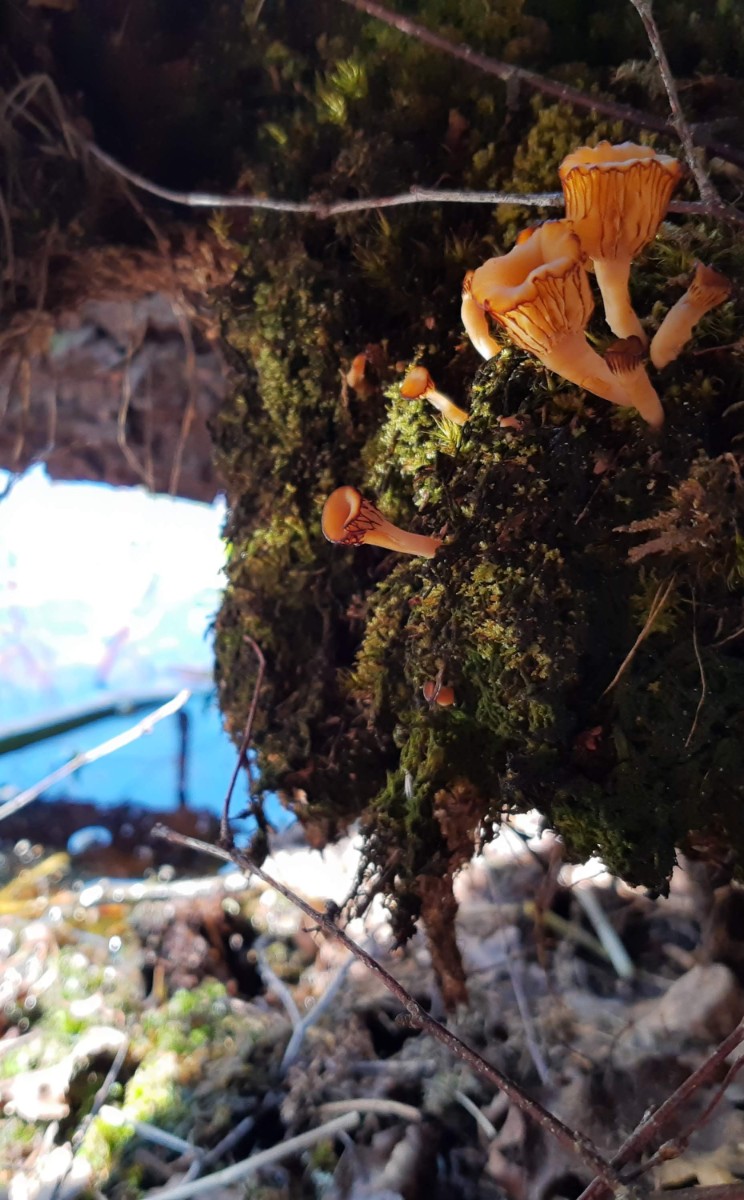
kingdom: Fungi
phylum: Basidiomycota
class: Agaricomycetes
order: Agaricales
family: Hygrophoraceae
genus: Lichenomphalia
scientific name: Lichenomphalia umbellifera
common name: tørve-lavhat
